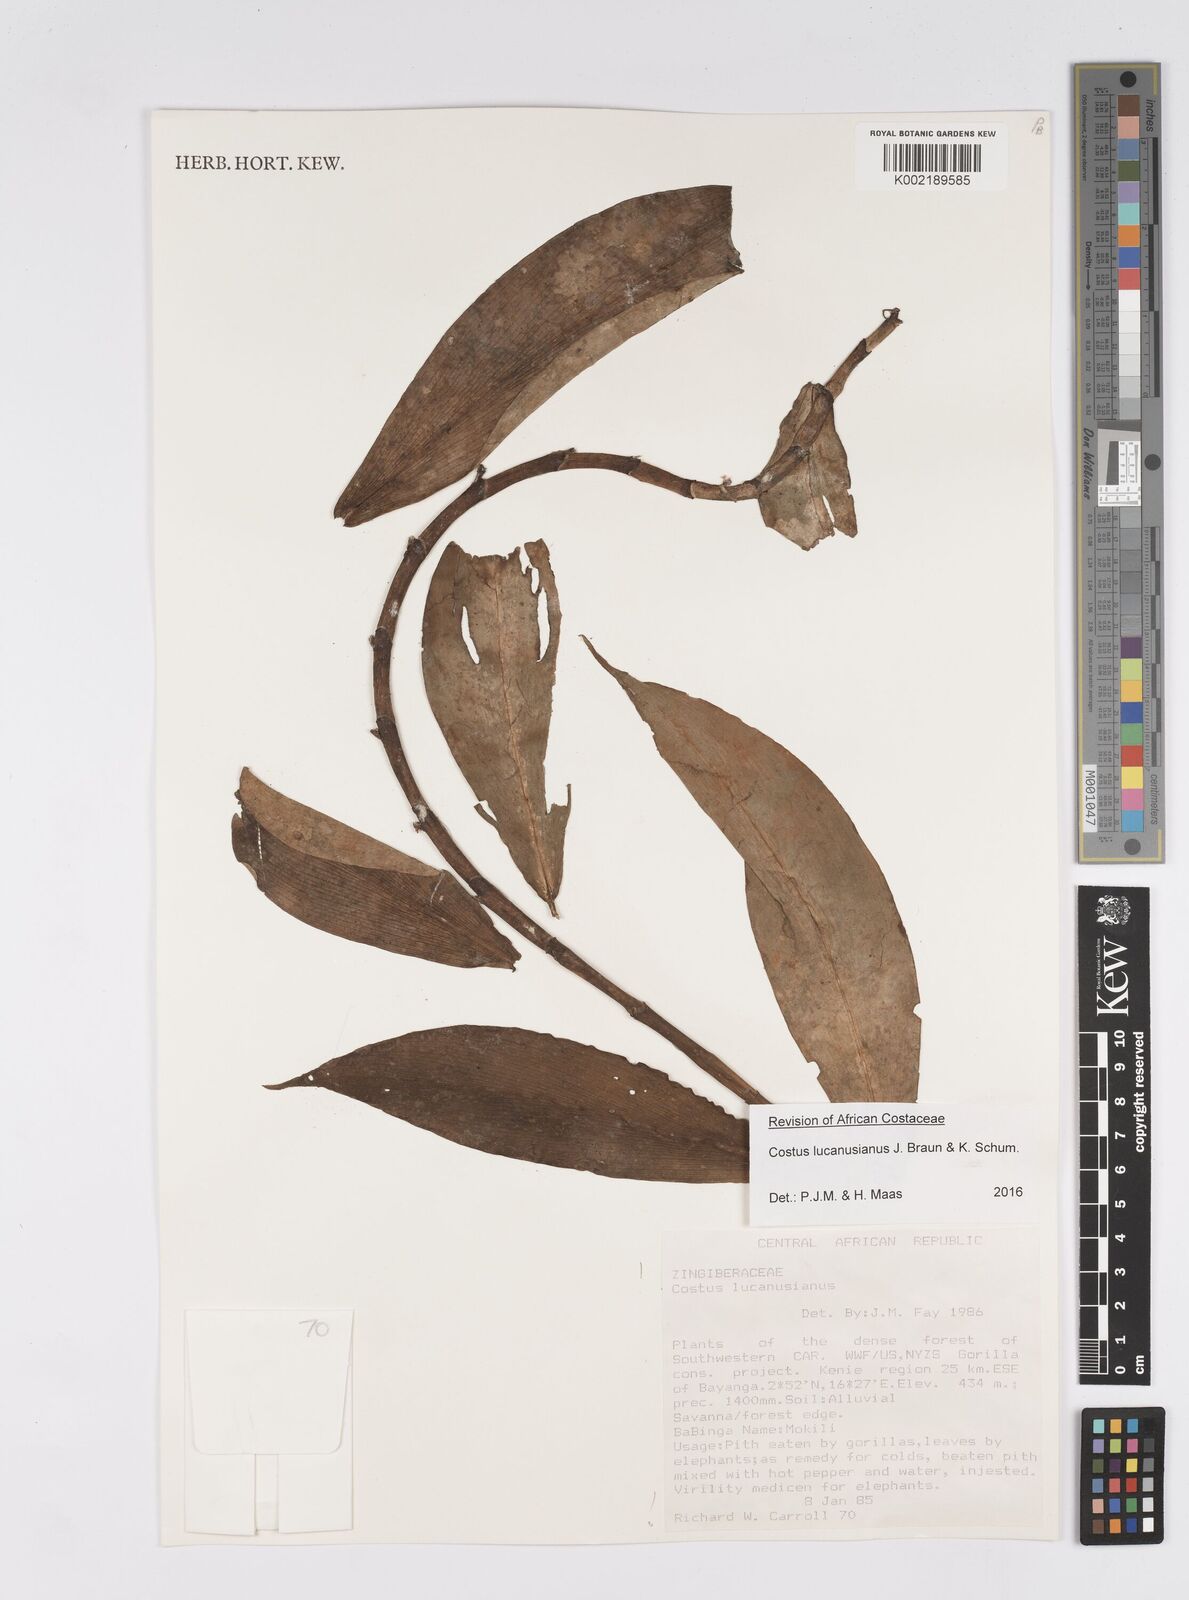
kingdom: Plantae
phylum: Tracheophyta
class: Liliopsida
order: Zingiberales
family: Costaceae
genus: Costus
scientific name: Costus lucanusianus
